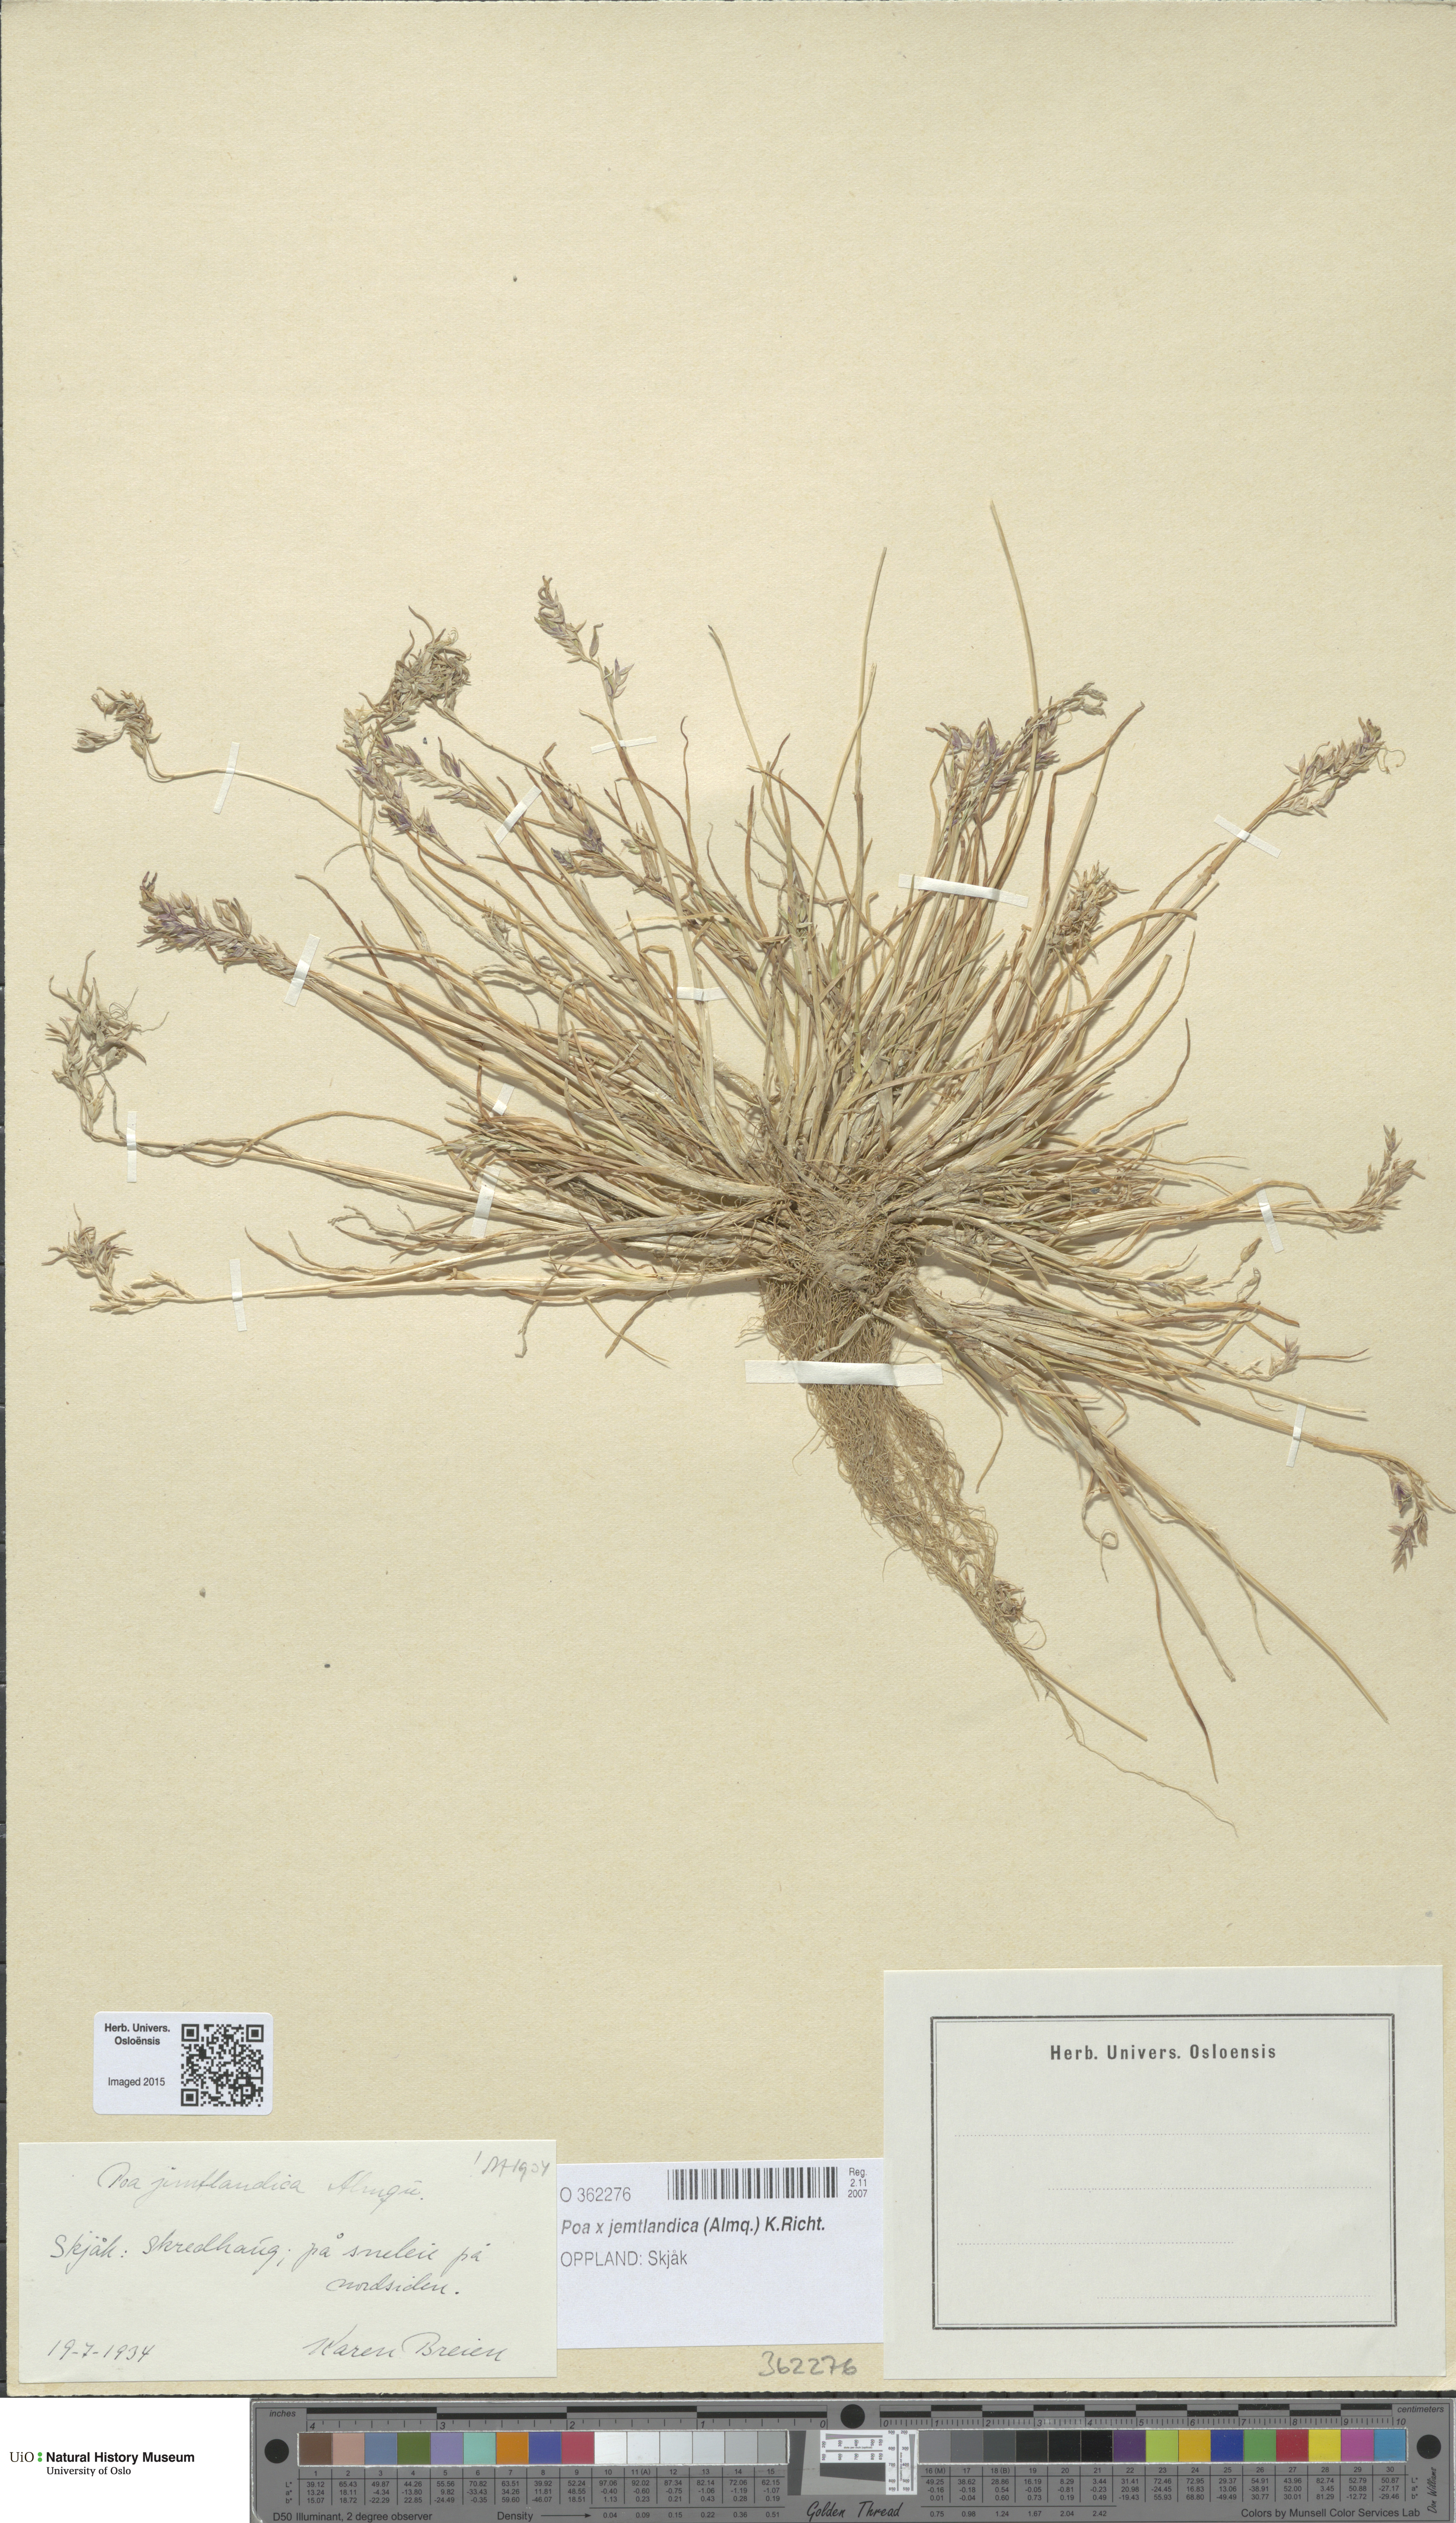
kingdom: Plantae
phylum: Tracheophyta
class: Liliopsida
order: Poales
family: Poaceae
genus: Poa
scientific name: Poa jemtlandica
